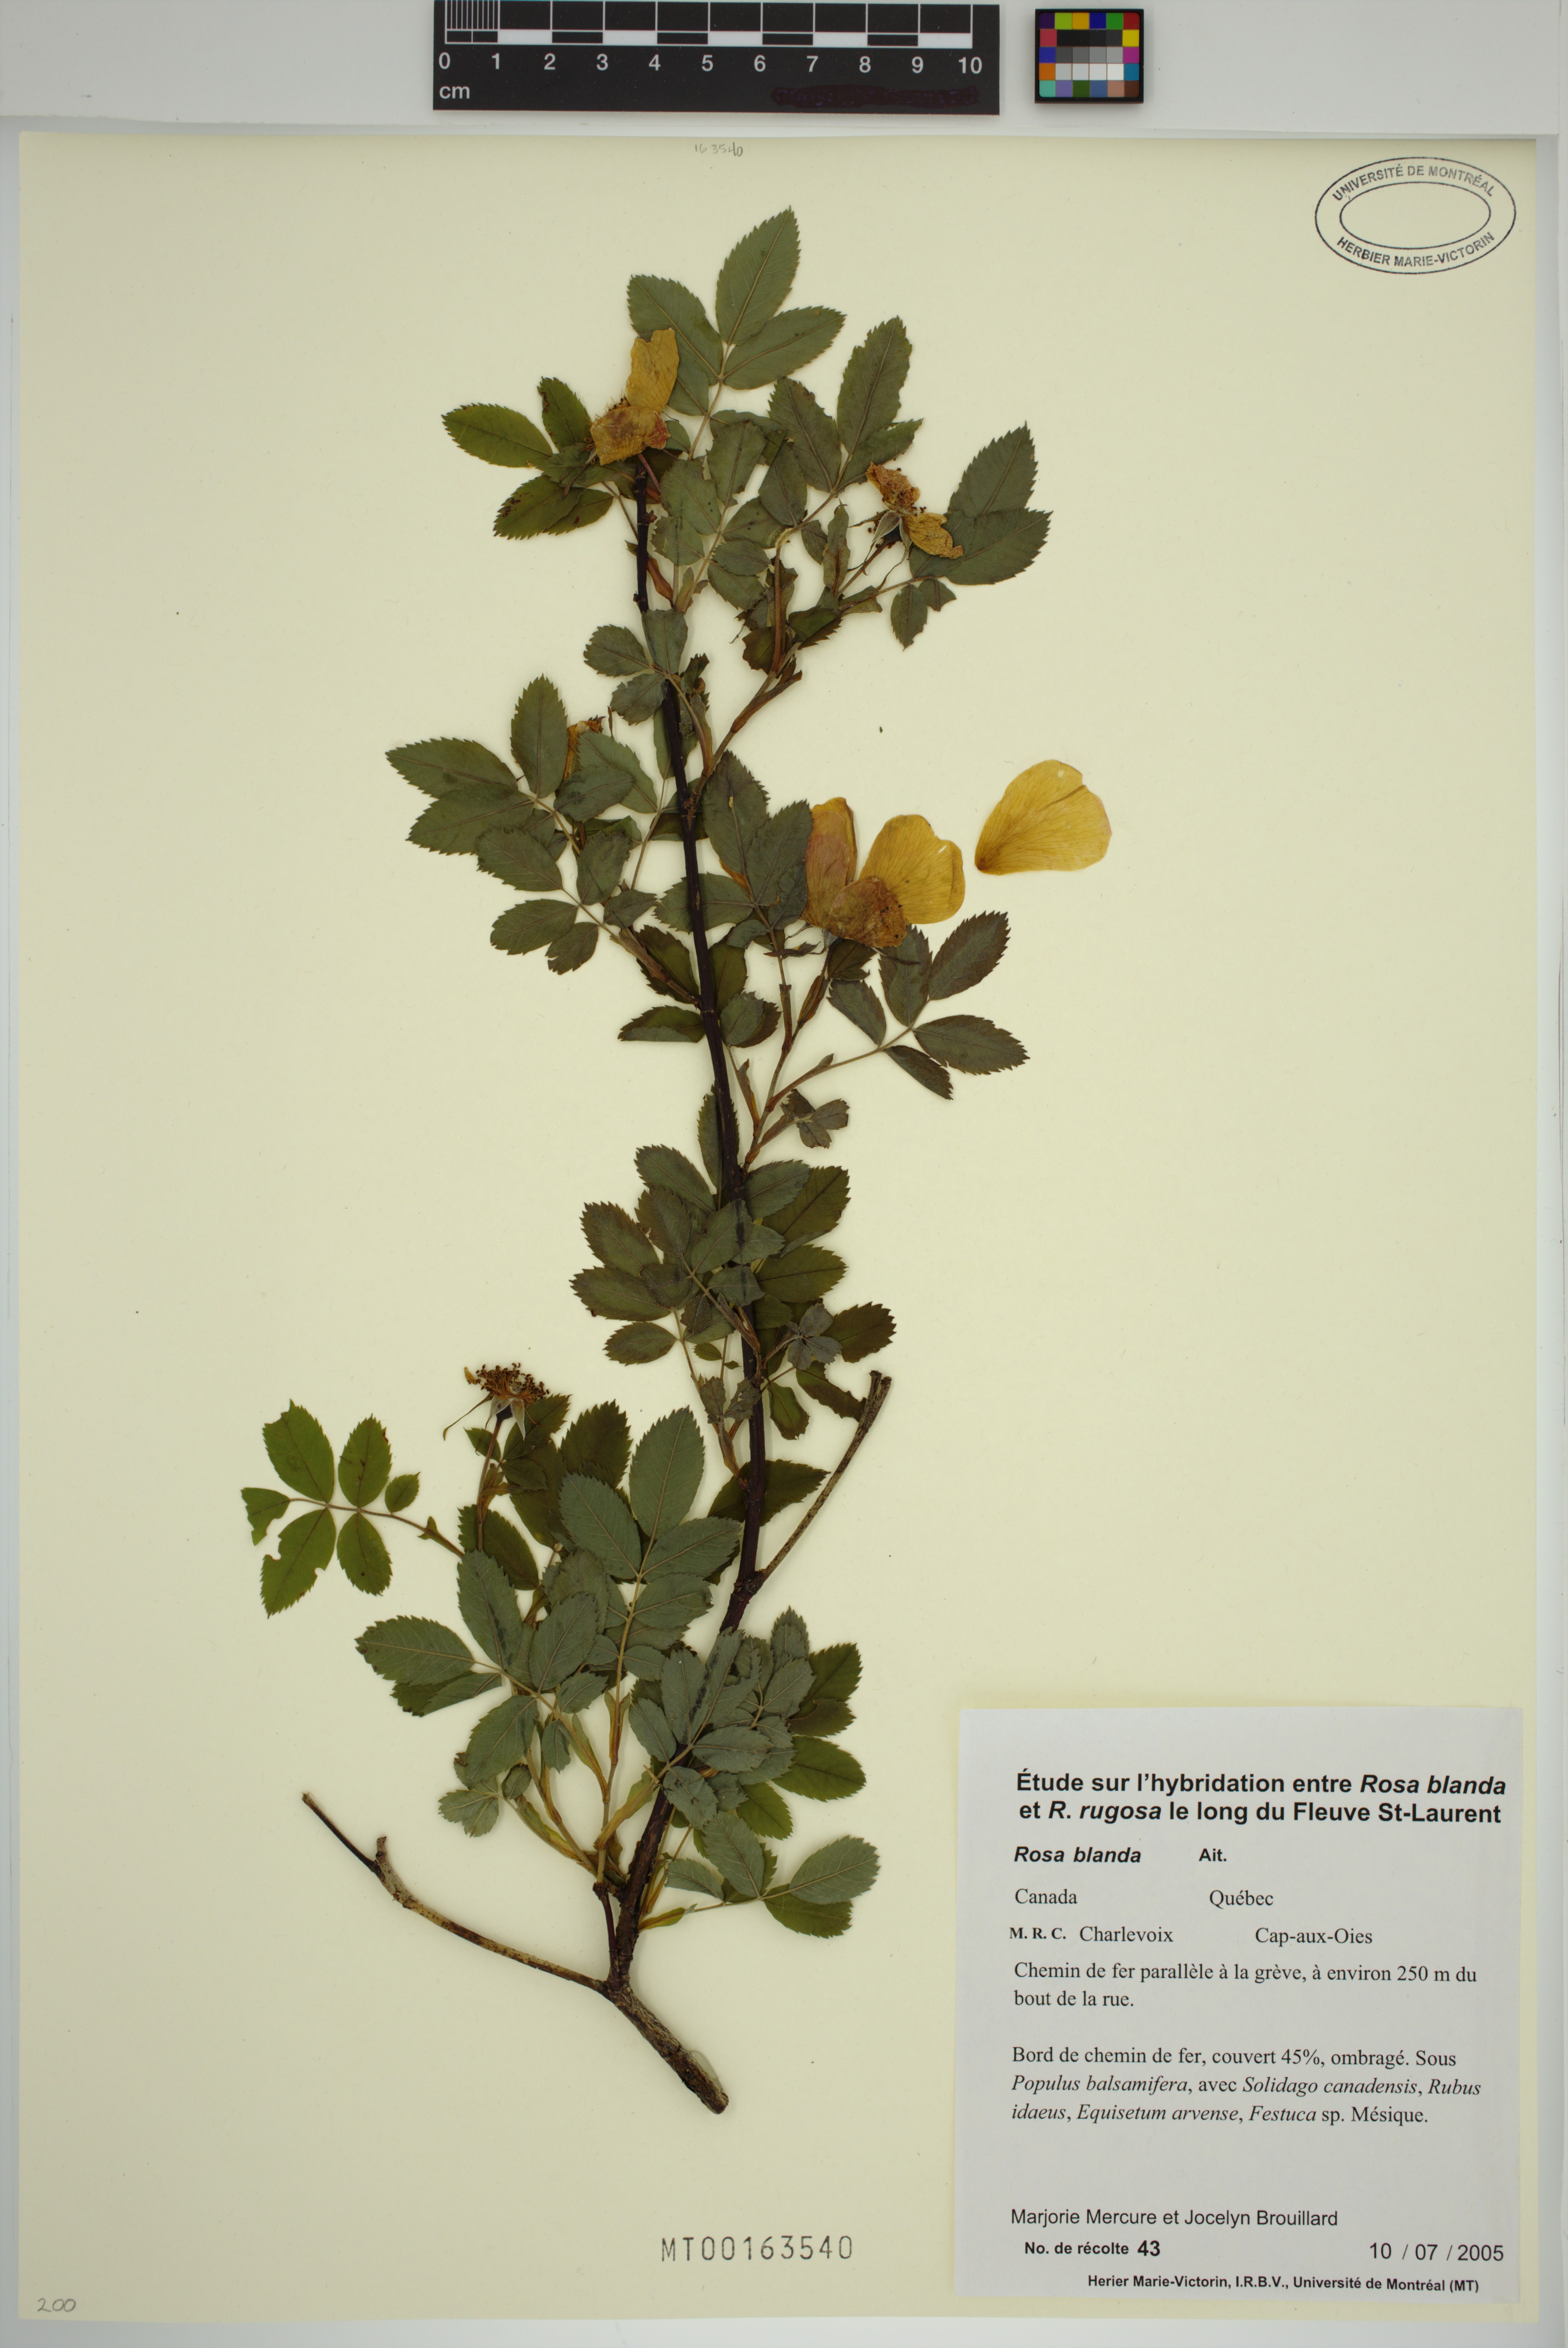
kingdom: Plantae
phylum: Tracheophyta
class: Magnoliopsida
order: Rosales
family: Rosaceae
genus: Rosa
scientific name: Rosa blanda
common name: Smooth rose
